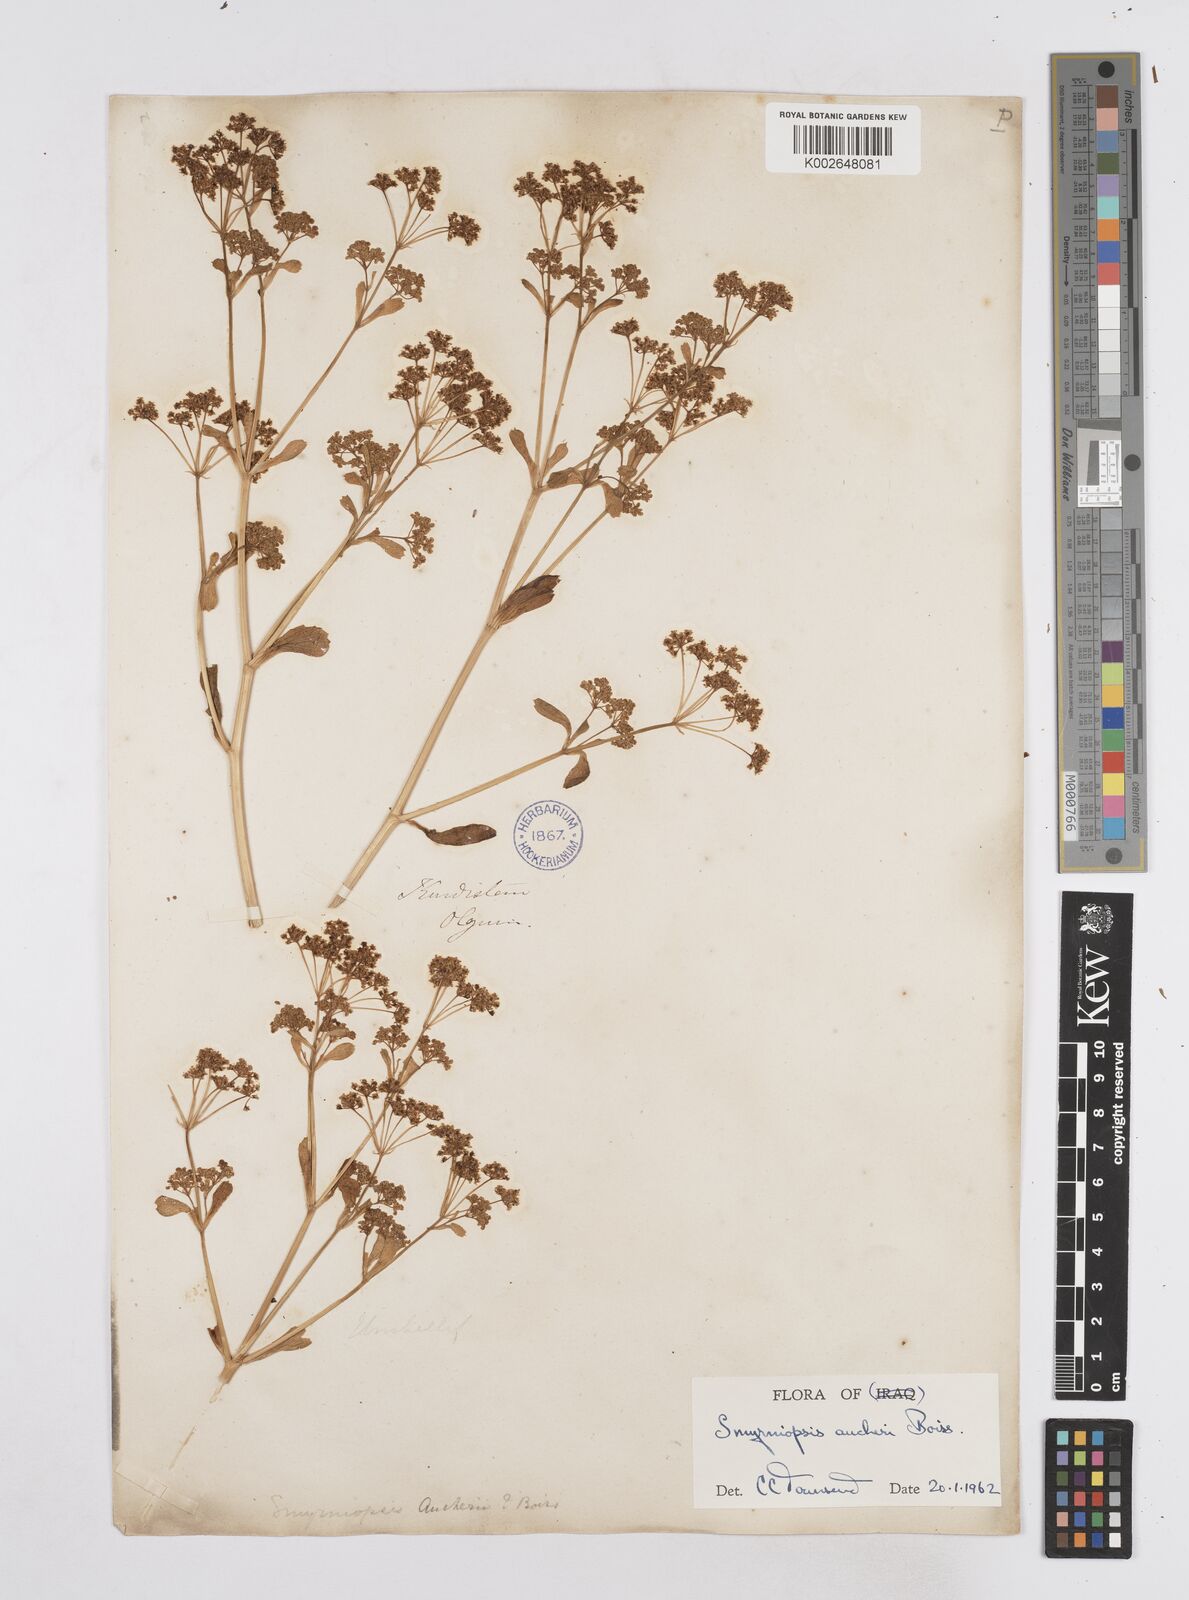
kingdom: Plantae
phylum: Tracheophyta
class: Magnoliopsida
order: Apiales
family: Apiaceae
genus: Smyrniopsis
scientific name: Smyrniopsis aucheri
